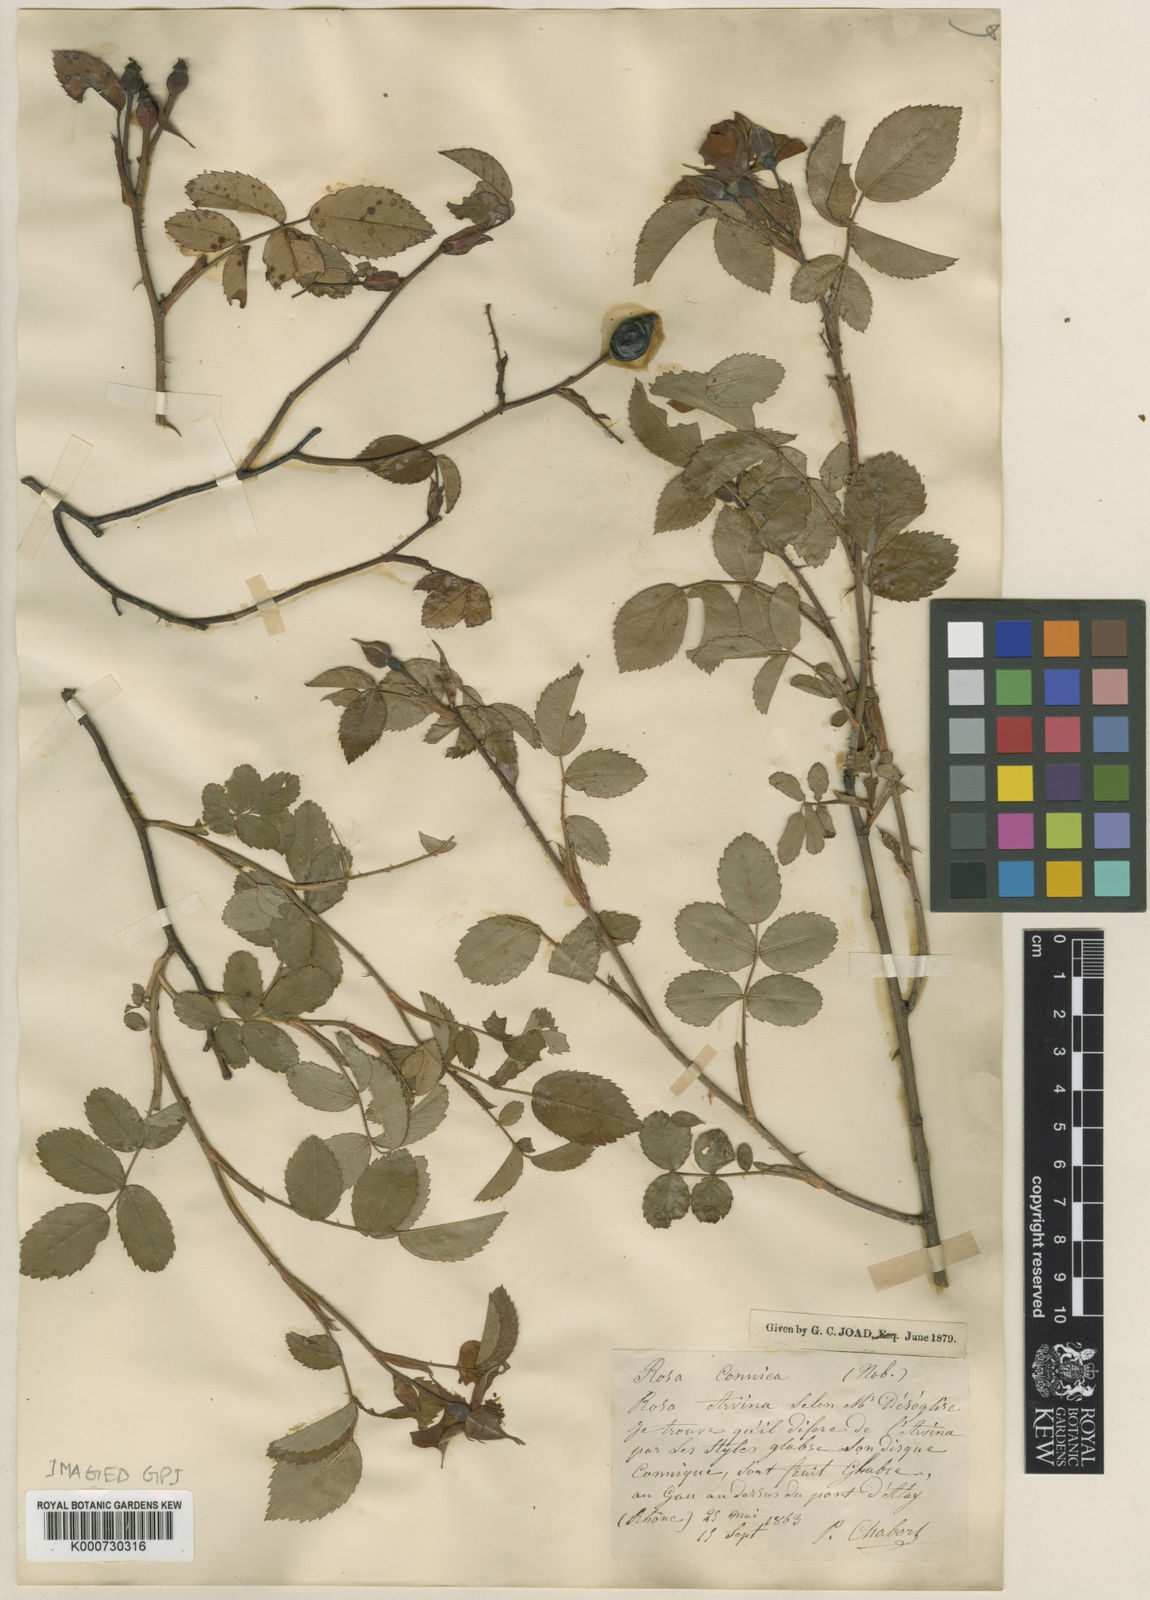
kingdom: Plantae
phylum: Tracheophyta
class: Magnoliopsida
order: Rosales
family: Rosaceae
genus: Rosa
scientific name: Rosa gallica
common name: French rose
